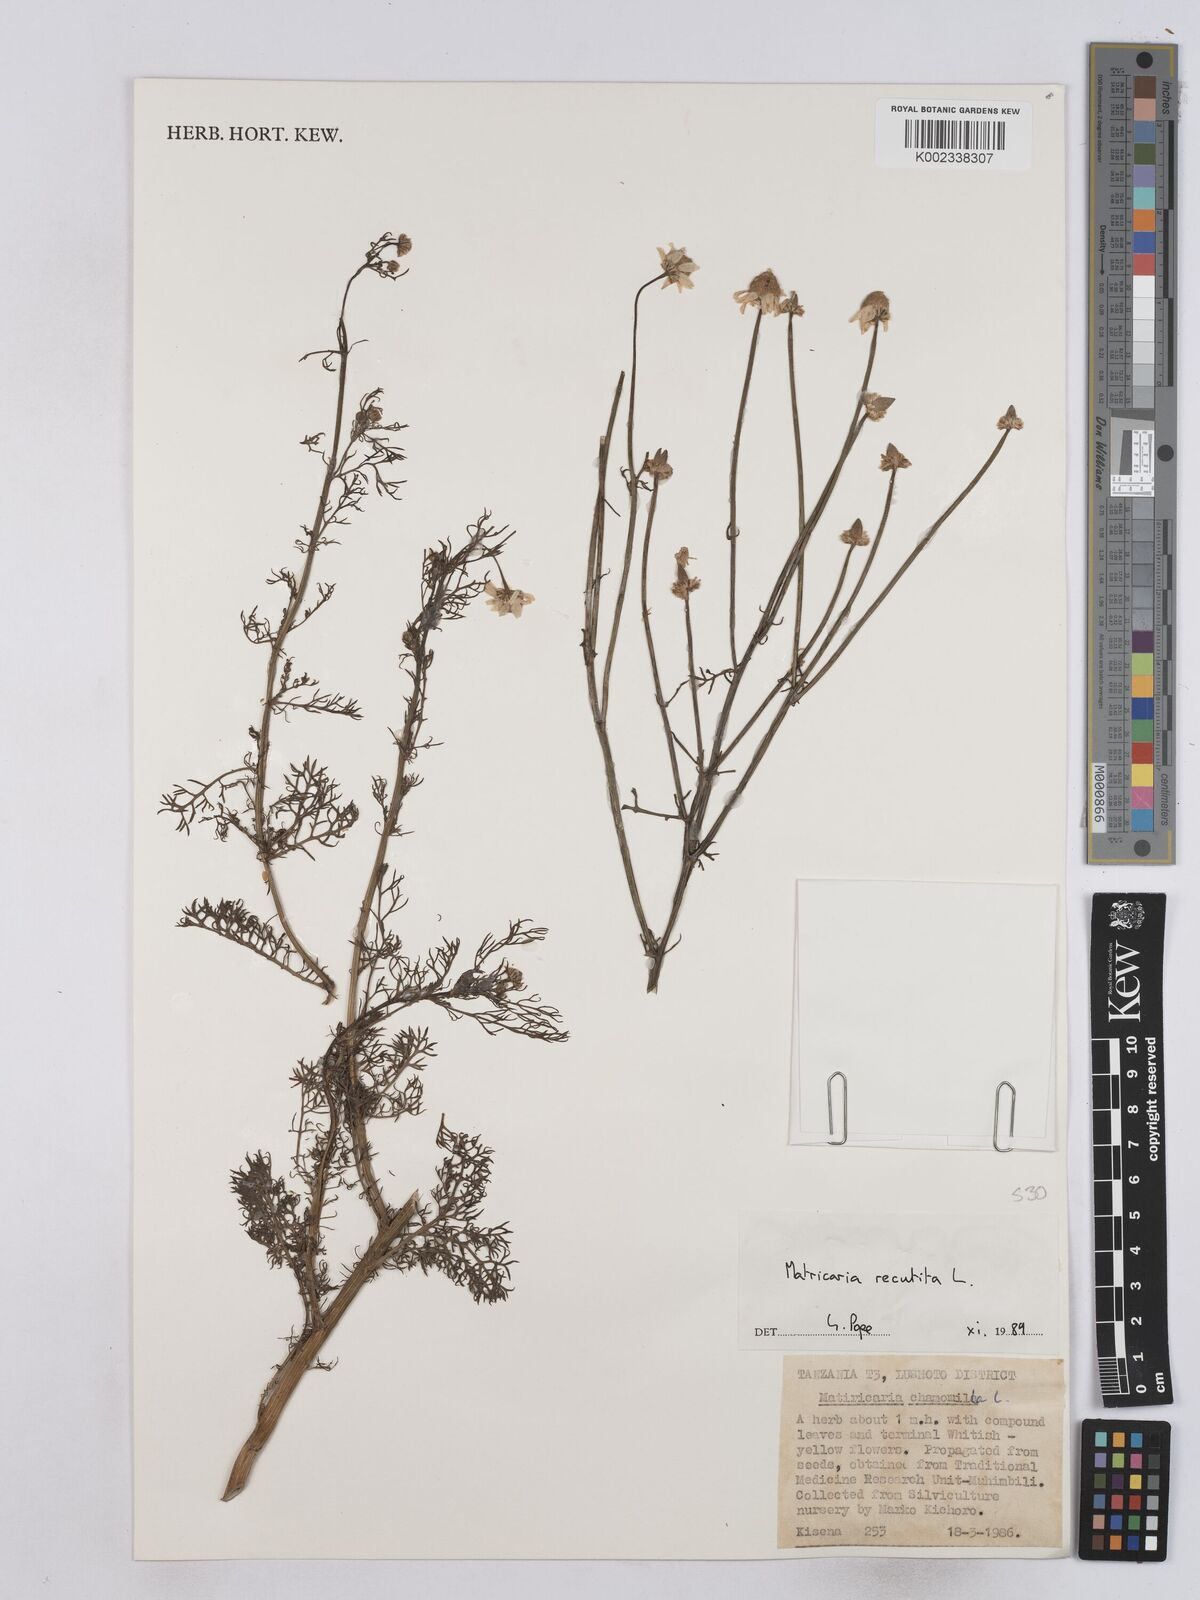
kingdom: Plantae
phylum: Tracheophyta
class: Magnoliopsida
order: Asterales
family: Asteraceae
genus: Matricaria
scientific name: Matricaria chamomilla
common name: Scented mayweed
